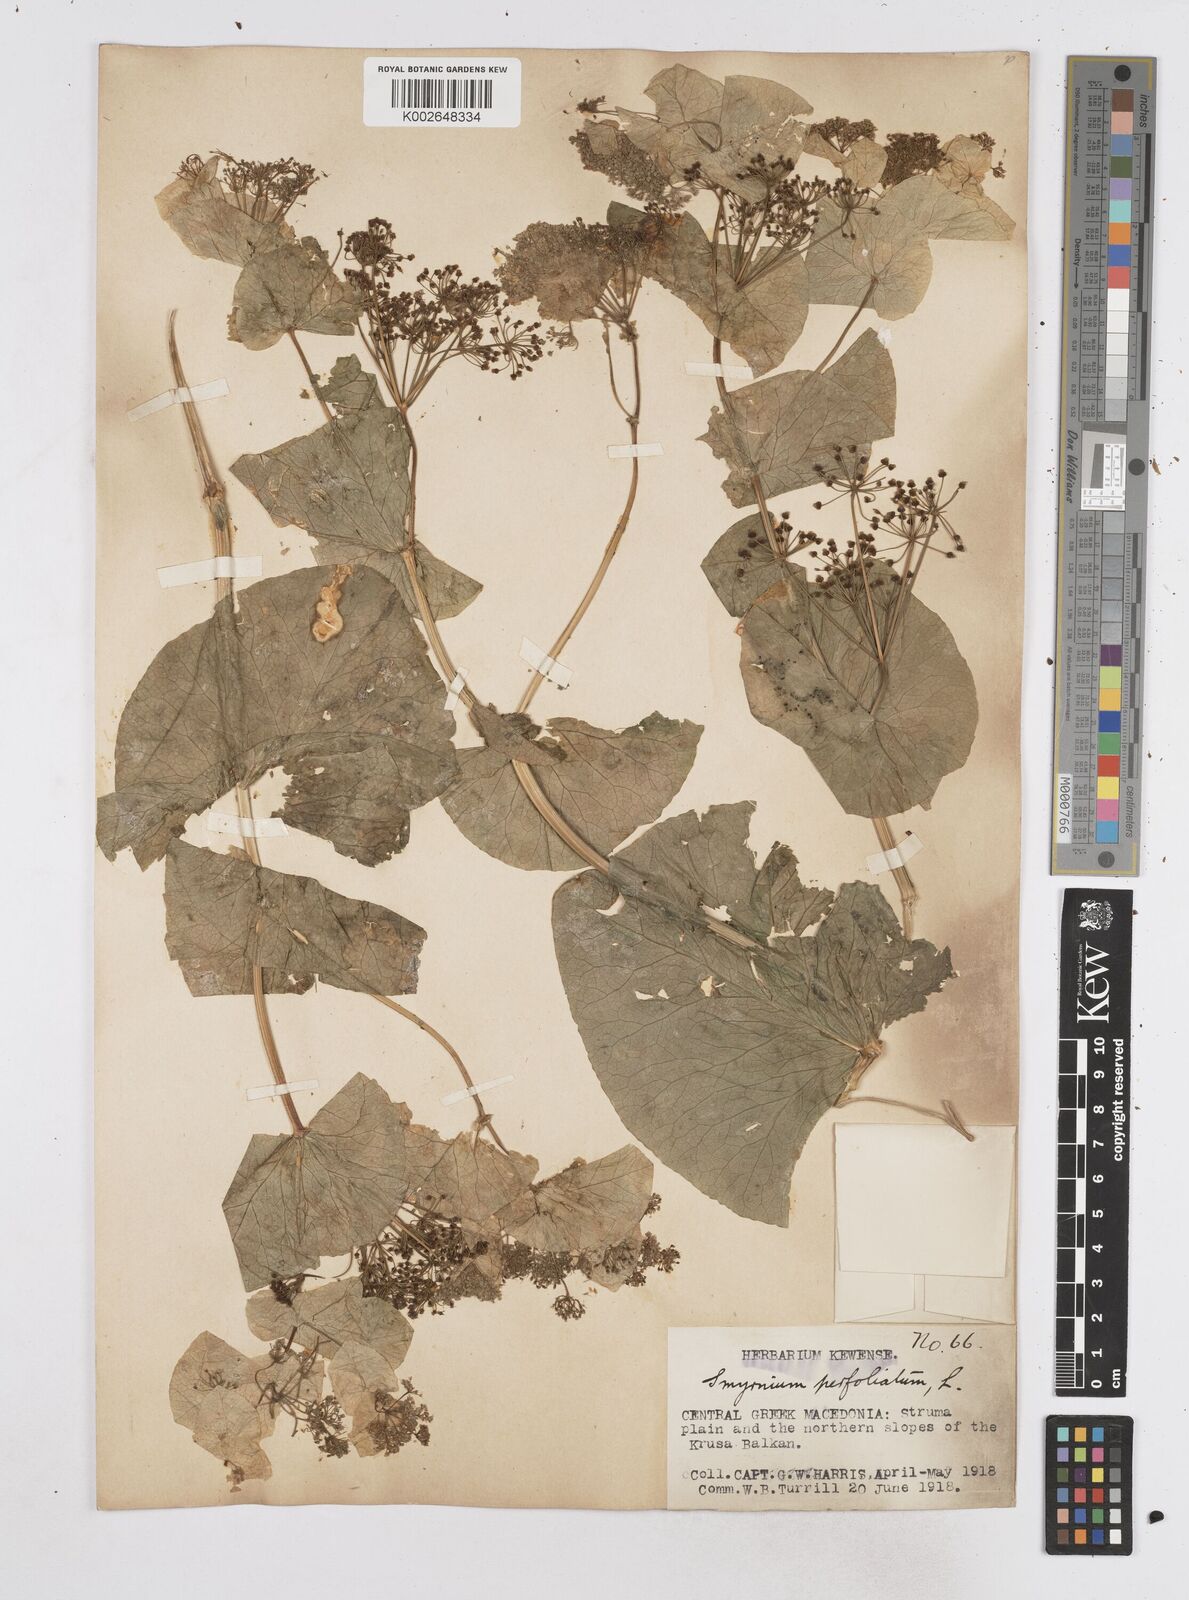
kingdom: Plantae
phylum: Tracheophyta
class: Magnoliopsida
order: Apiales
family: Apiaceae
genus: Smyrnium
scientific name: Smyrnium perfoliatum
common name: Perfoliate alexanders
